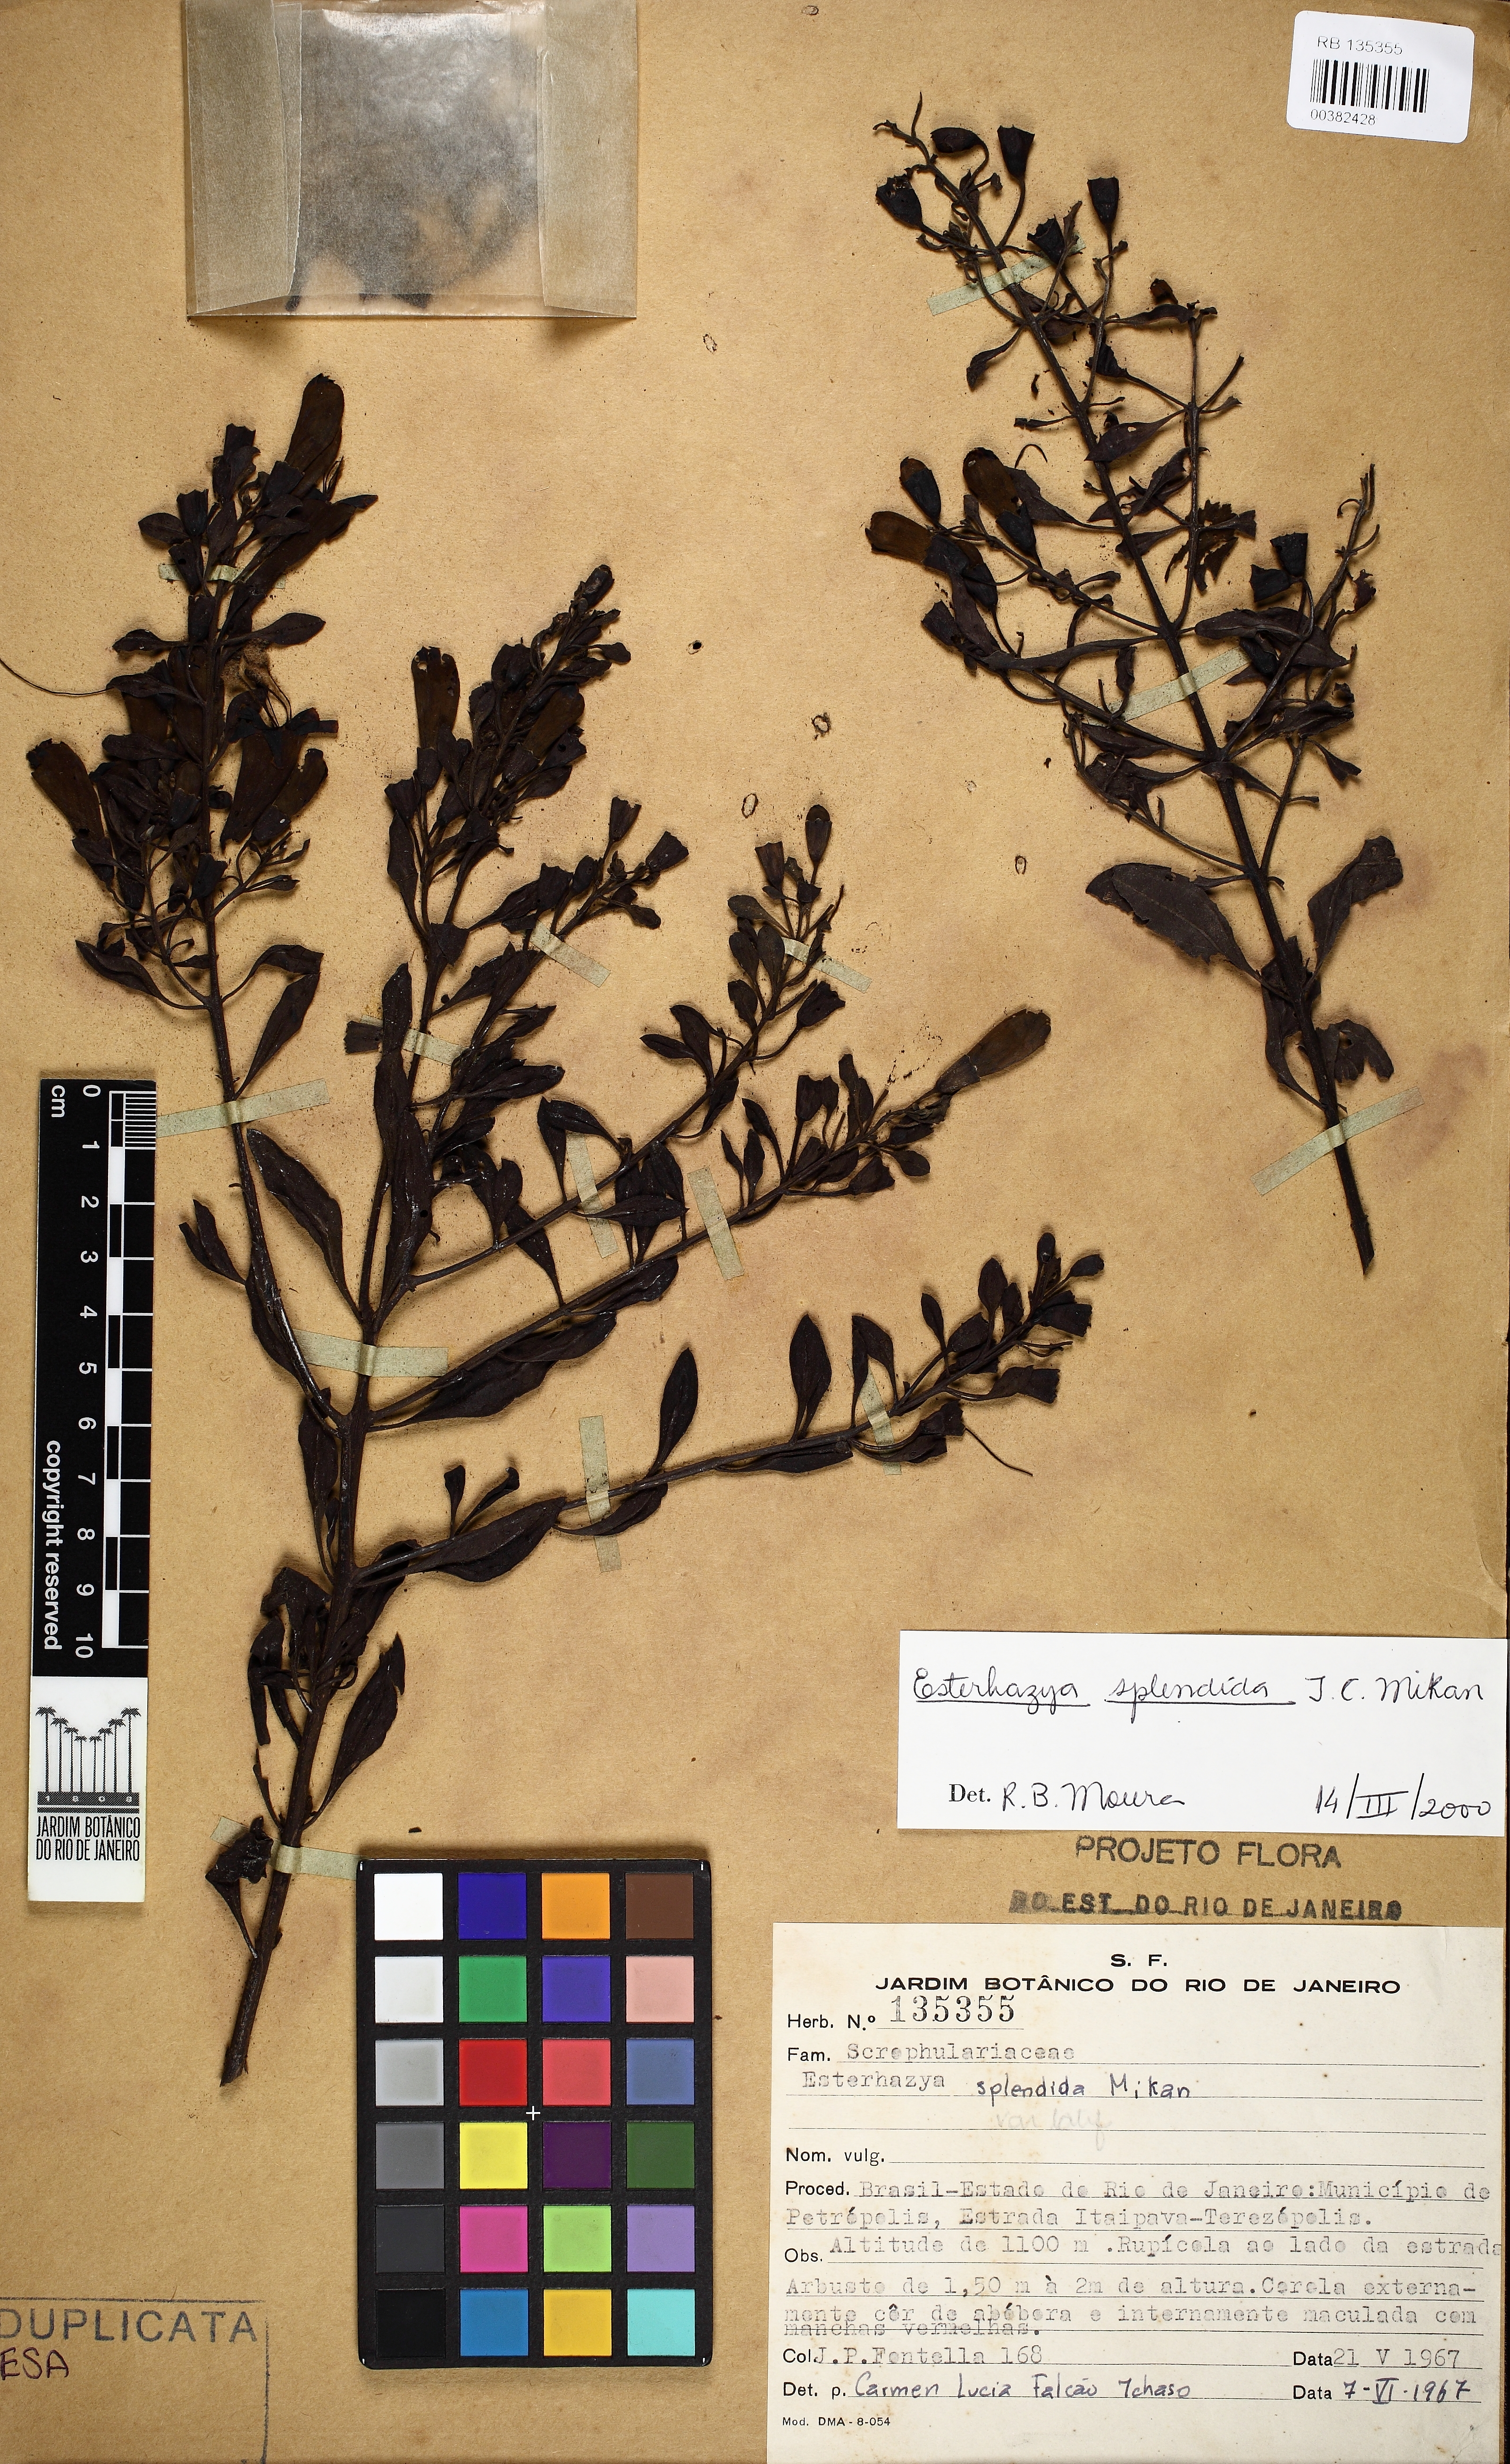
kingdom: Plantae
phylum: Tracheophyta
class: Magnoliopsida
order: Lamiales
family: Orobanchaceae
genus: Esterhazya
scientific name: Esterhazya splendida
